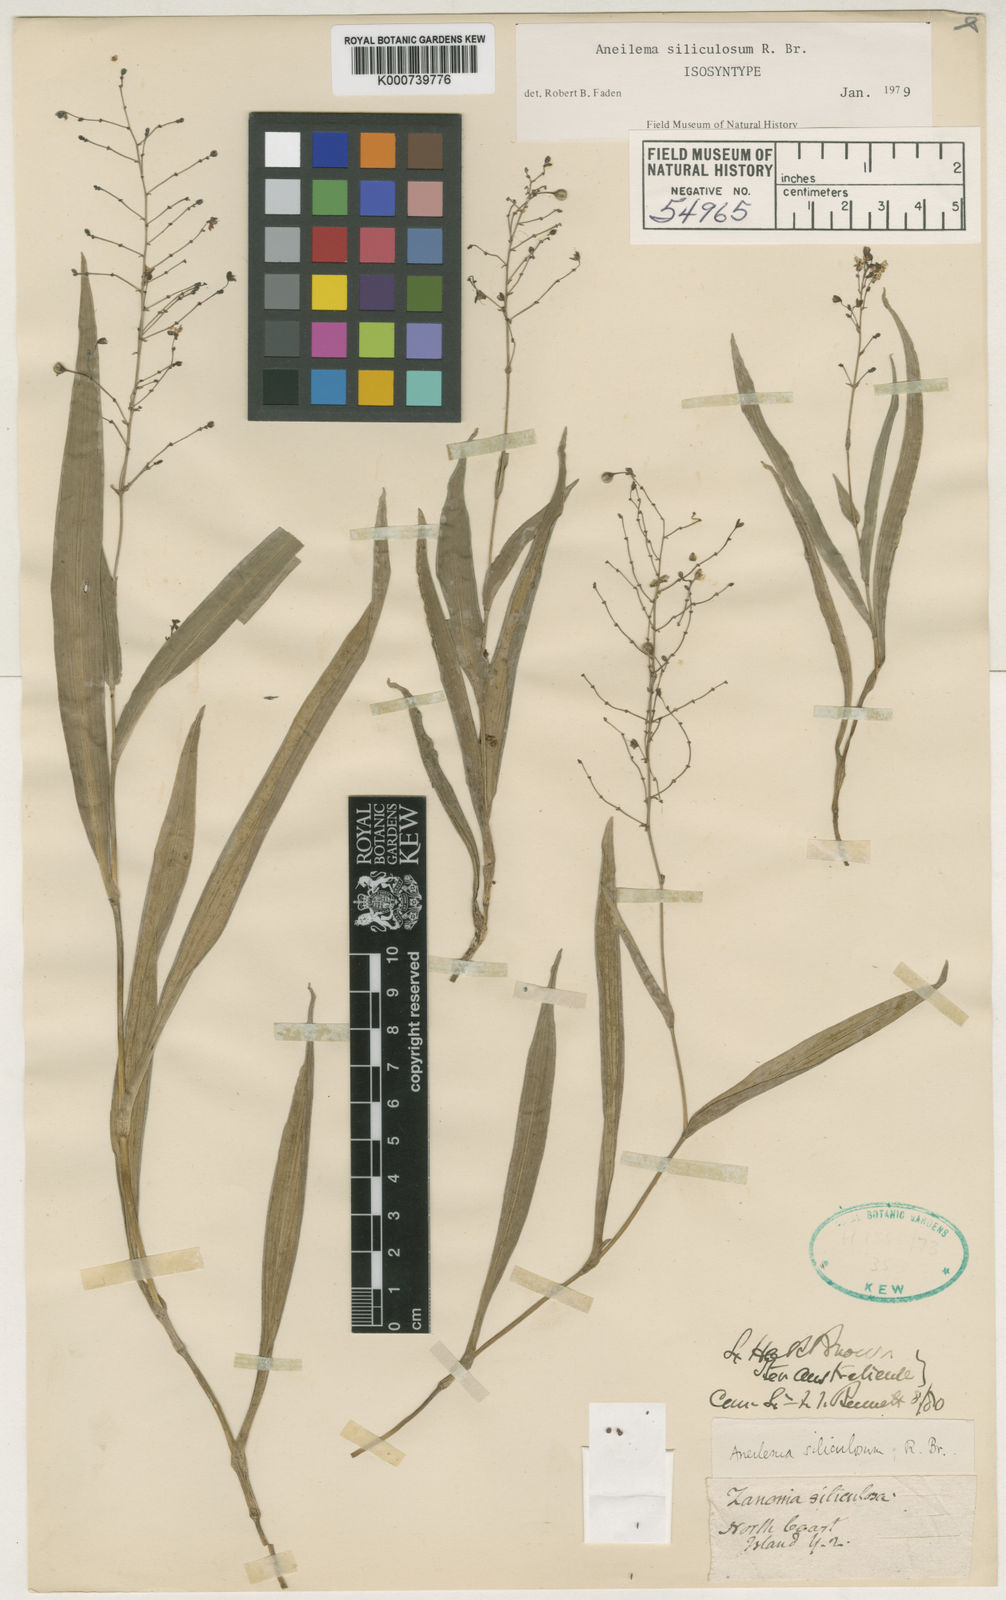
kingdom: Plantae
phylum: Tracheophyta
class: Liliopsida
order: Commelinales
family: Commelinaceae
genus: Aneilema
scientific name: Aneilema siliculosum
